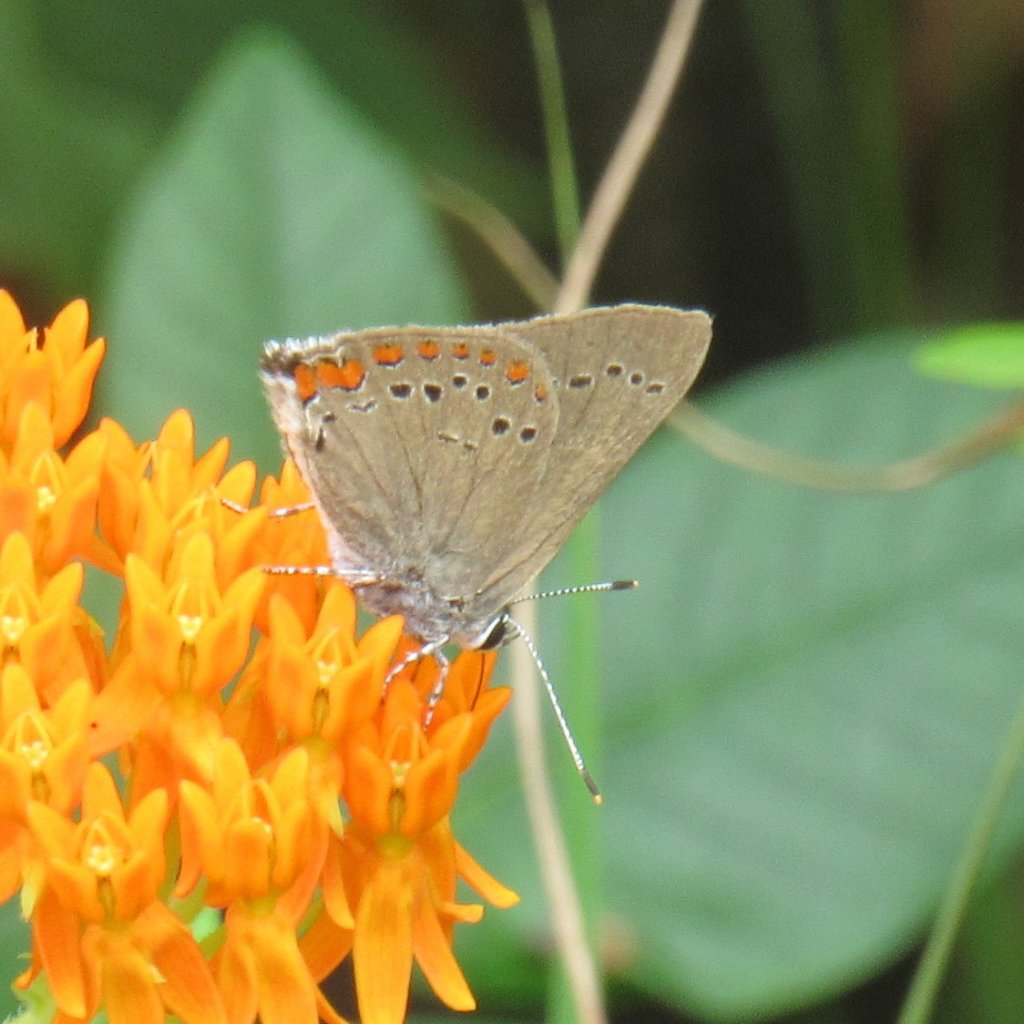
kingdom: Animalia
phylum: Arthropoda
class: Insecta
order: Lepidoptera
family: Lycaenidae
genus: Harkenclenus
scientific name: Harkenclenus titus
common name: Coral Hairstreak
